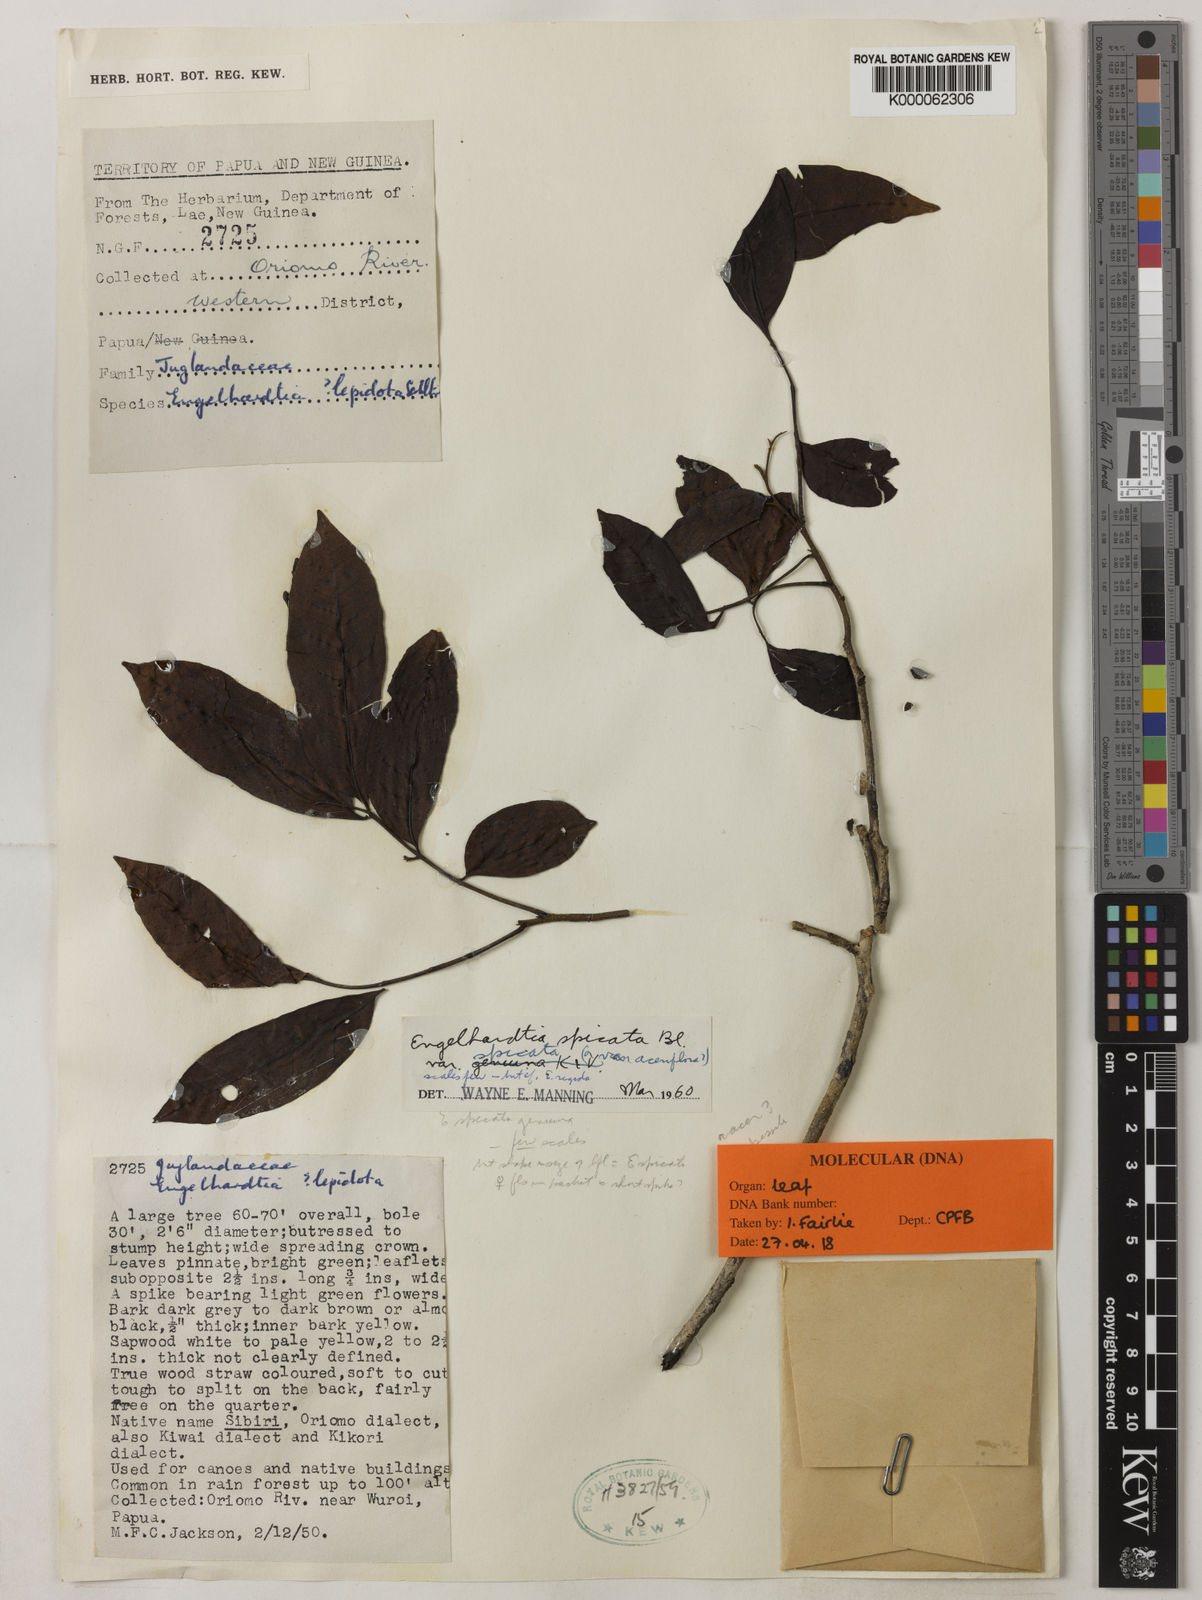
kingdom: Plantae
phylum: Tracheophyta
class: Magnoliopsida
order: Fagales
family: Juglandaceae
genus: Engelhardia
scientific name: Engelhardia spicata
